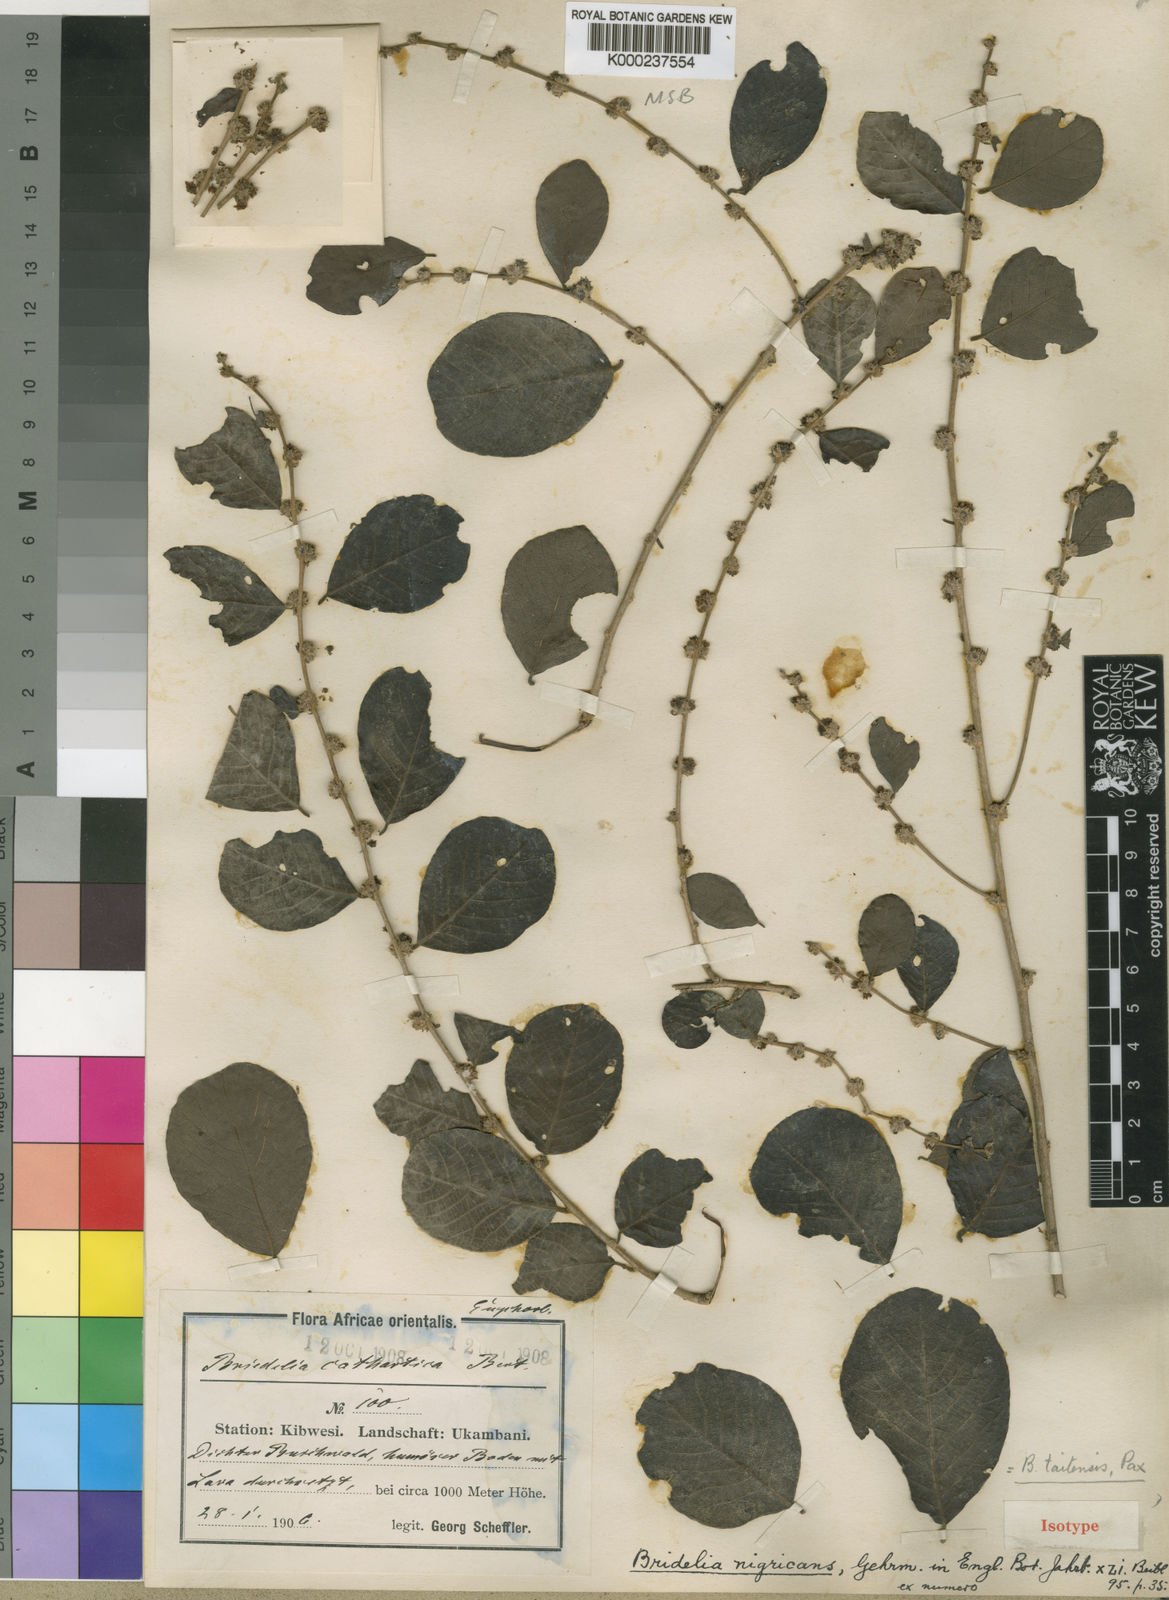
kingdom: Plantae
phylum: Tracheophyta
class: Magnoliopsida
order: Malpighiales
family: Phyllanthaceae
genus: Bridelia
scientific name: Bridelia taitensis
